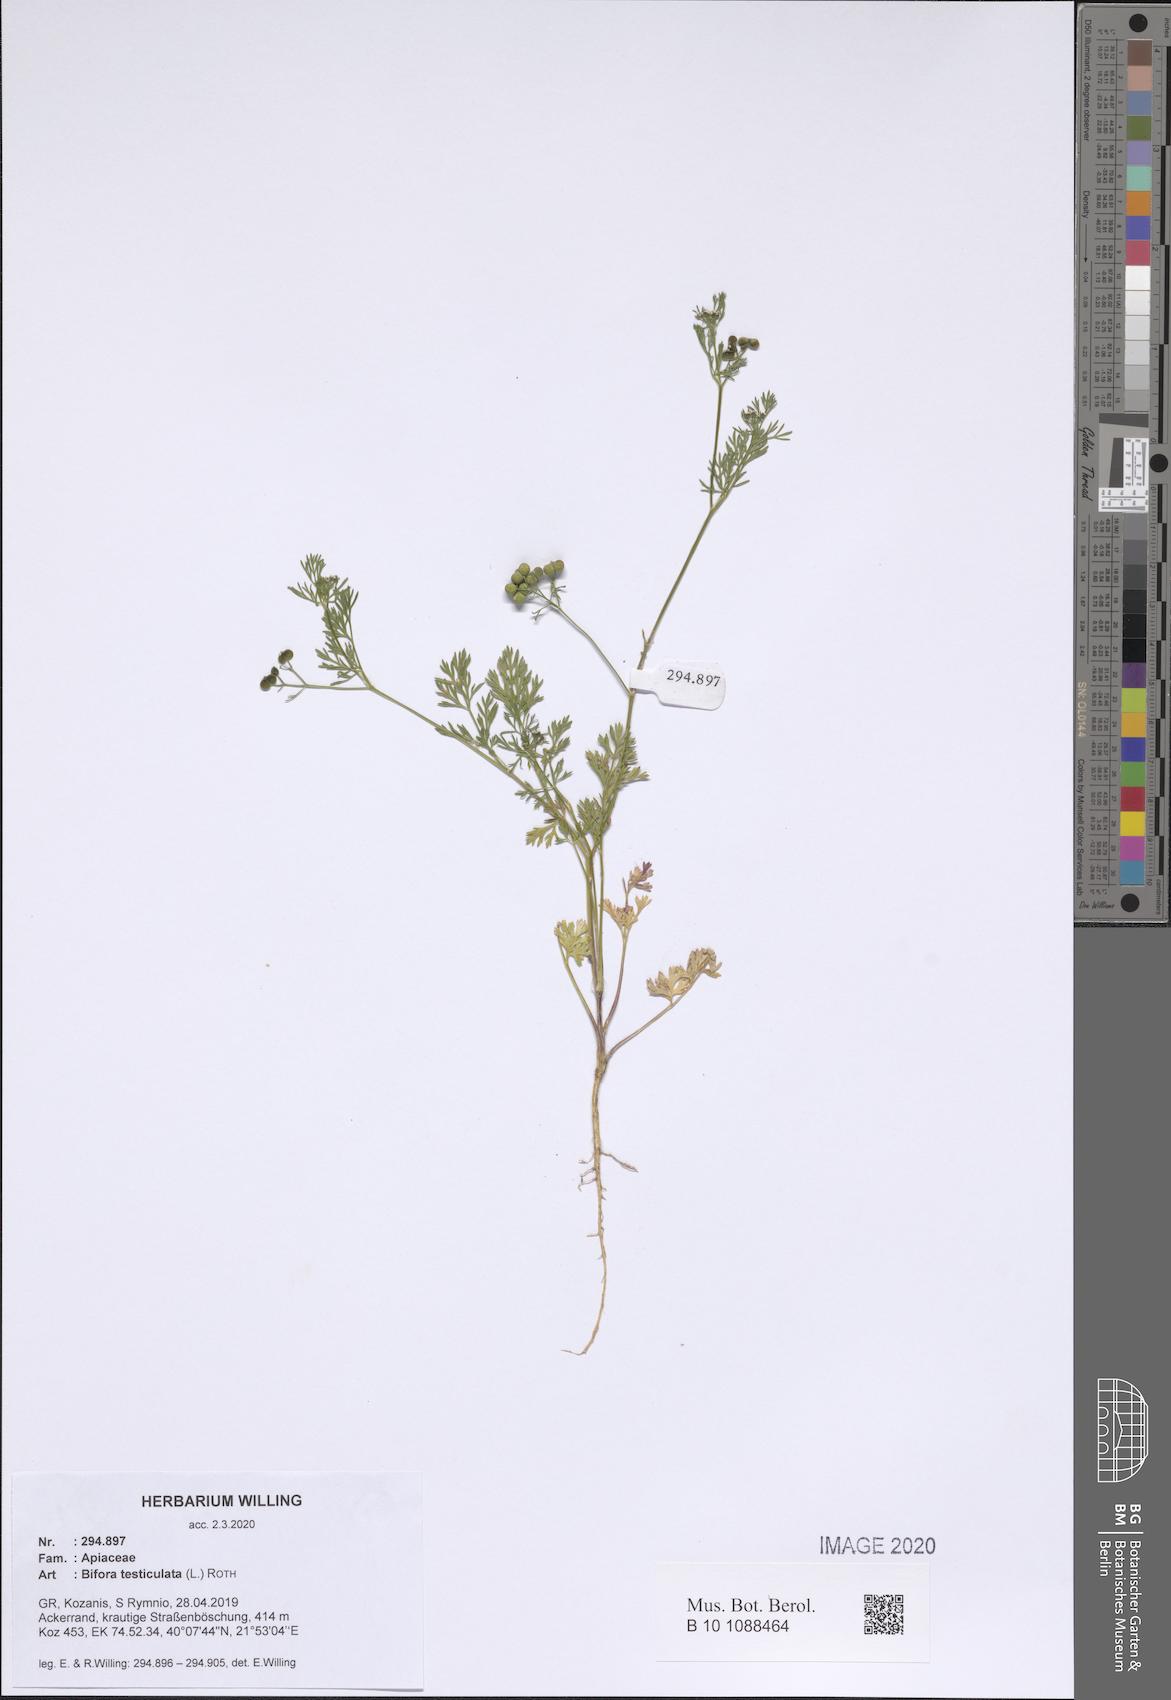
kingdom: Plantae
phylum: Tracheophyta
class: Magnoliopsida
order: Apiales
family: Apiaceae
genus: Bifora
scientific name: Bifora testiculata
